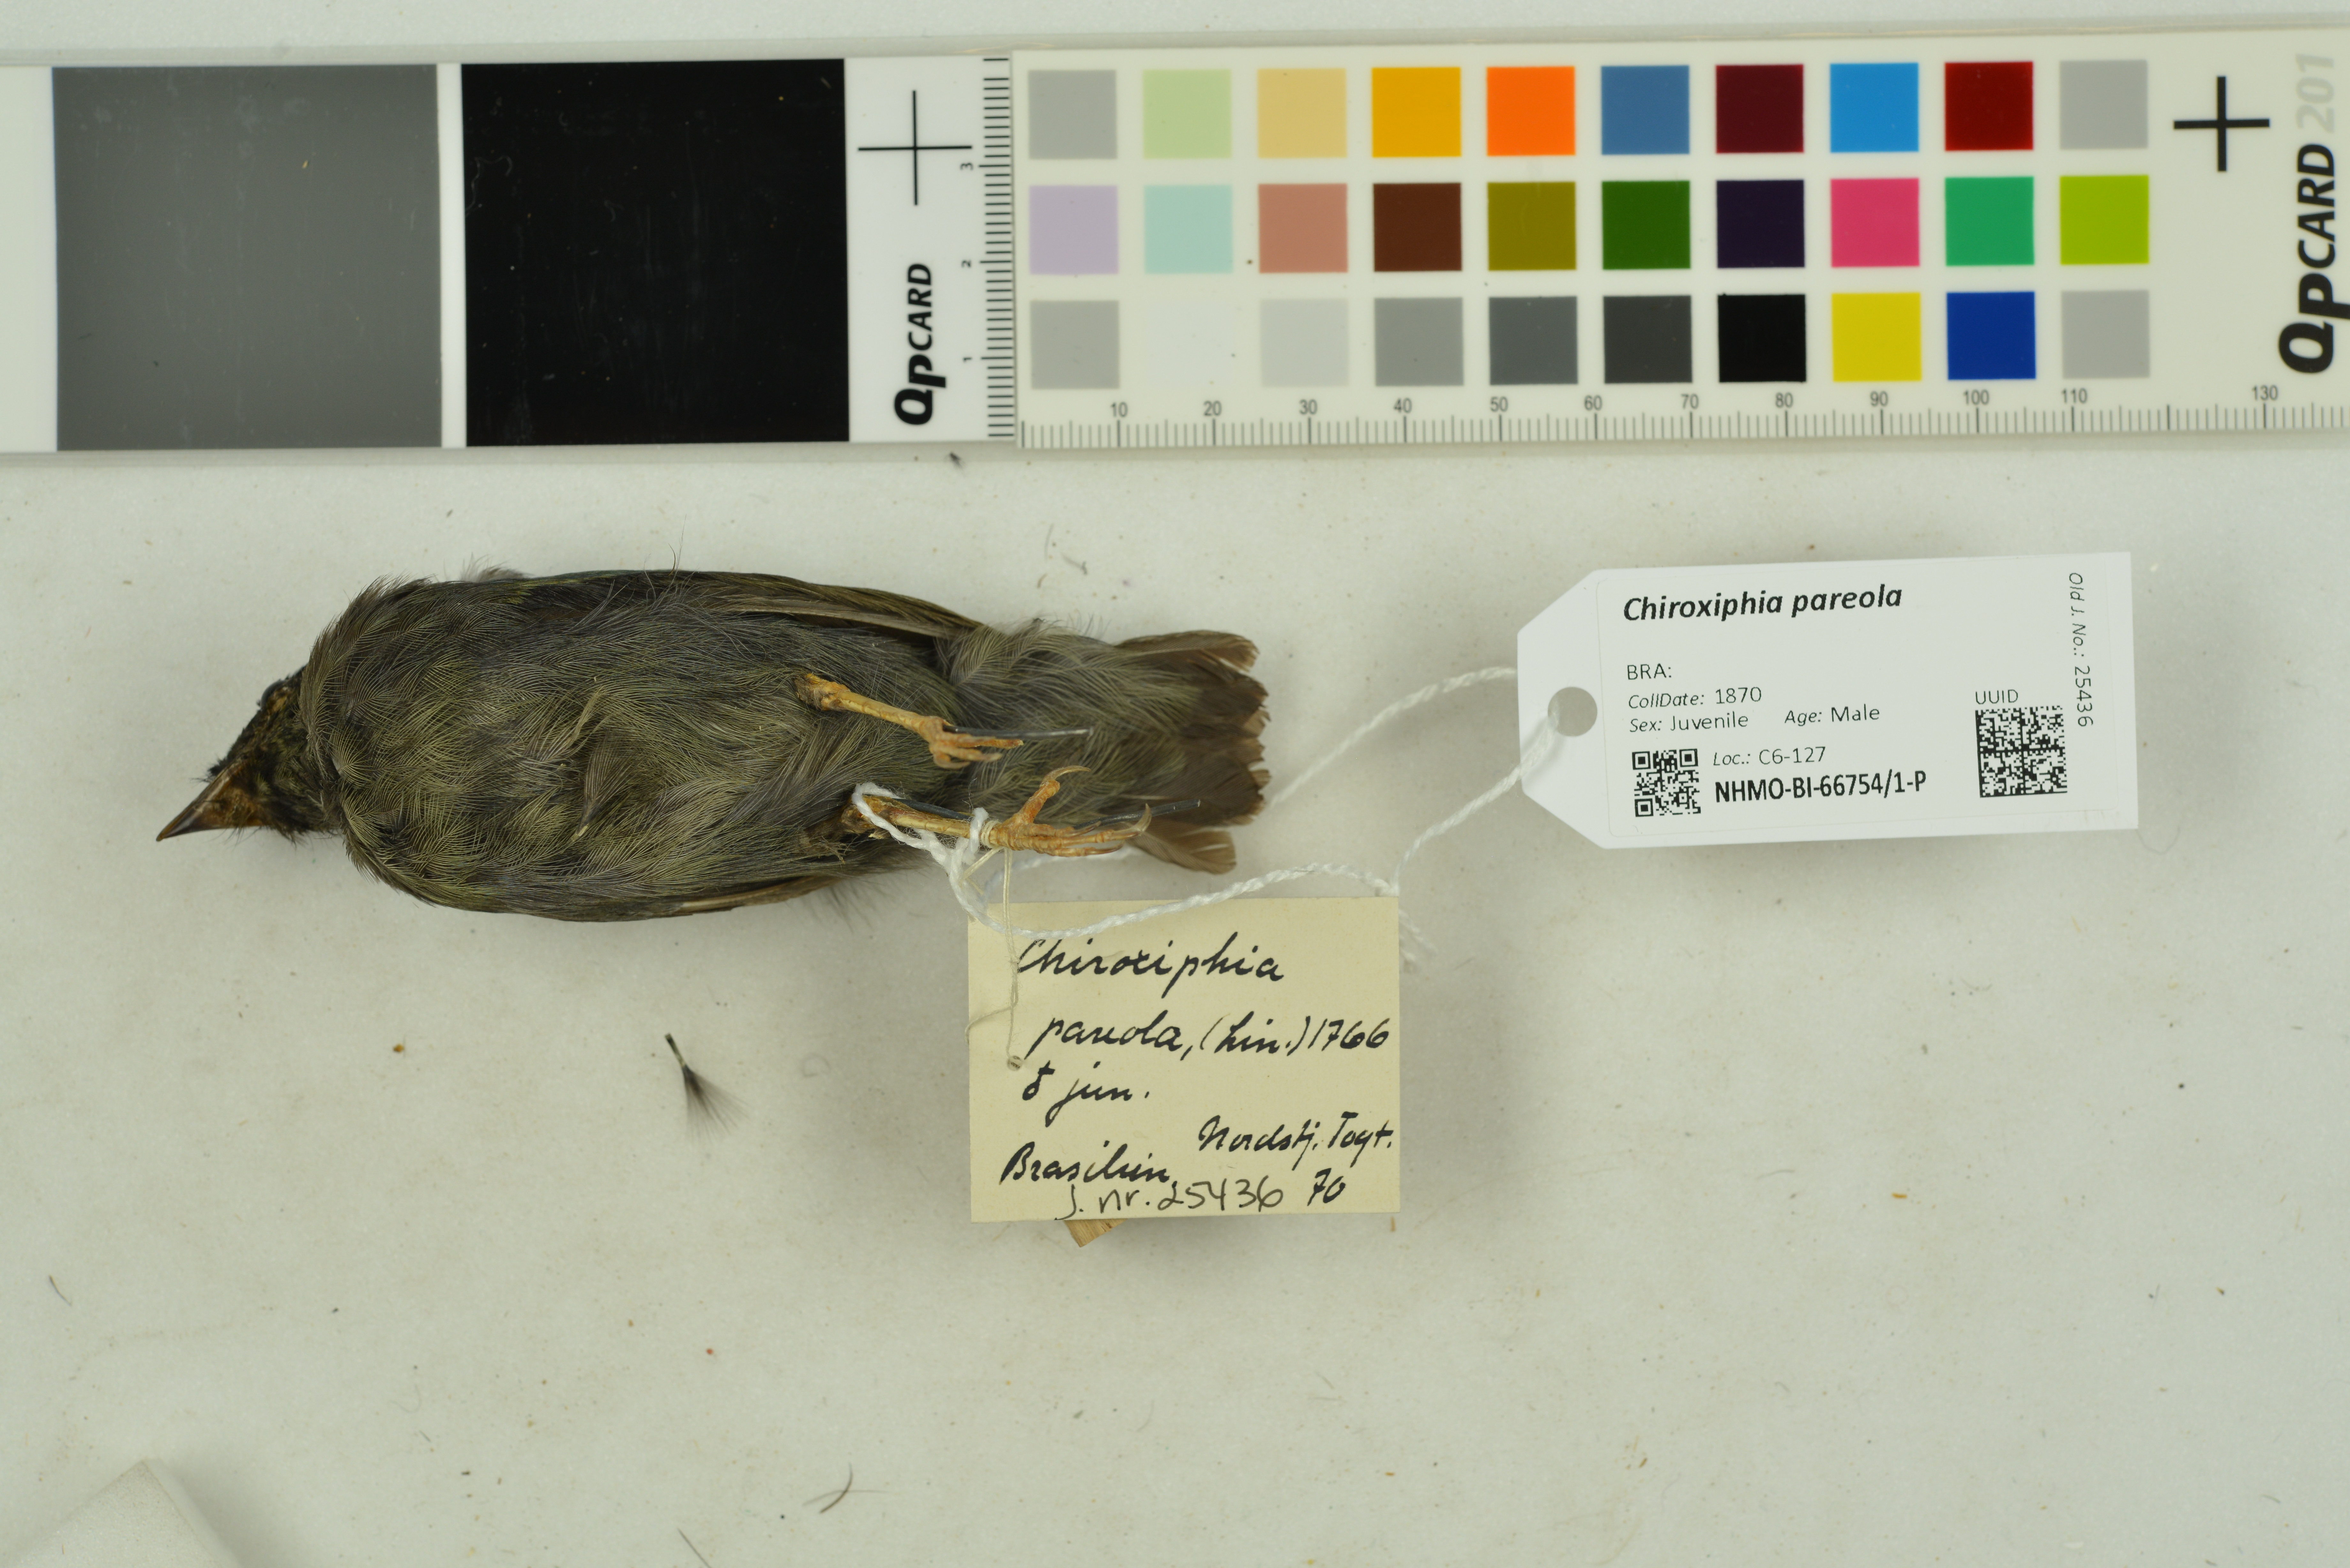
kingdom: Animalia
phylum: Chordata
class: Aves
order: Passeriformes
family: Pipridae
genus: Chiroxiphia
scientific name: Chiroxiphia pareola
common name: Blue-backed manakin
